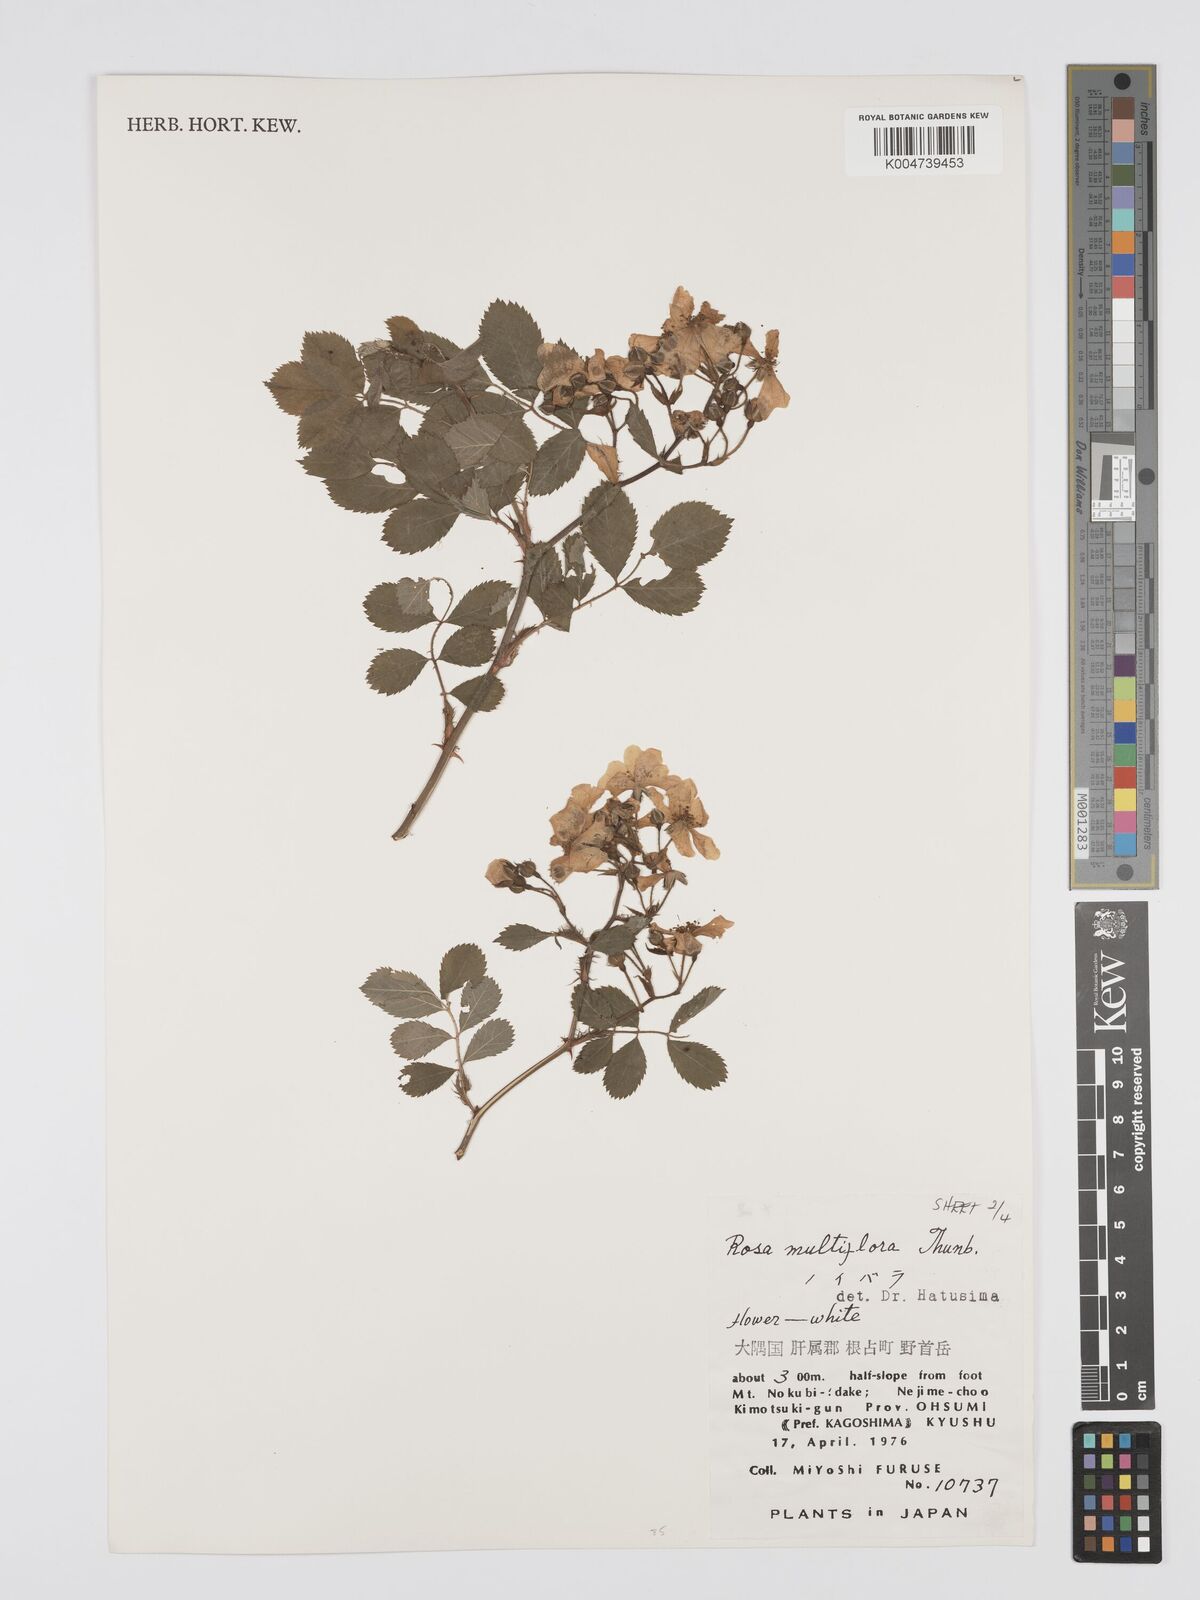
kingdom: Plantae
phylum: Tracheophyta
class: Magnoliopsida
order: Rosales
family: Rosaceae
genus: Rosa
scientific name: Rosa
